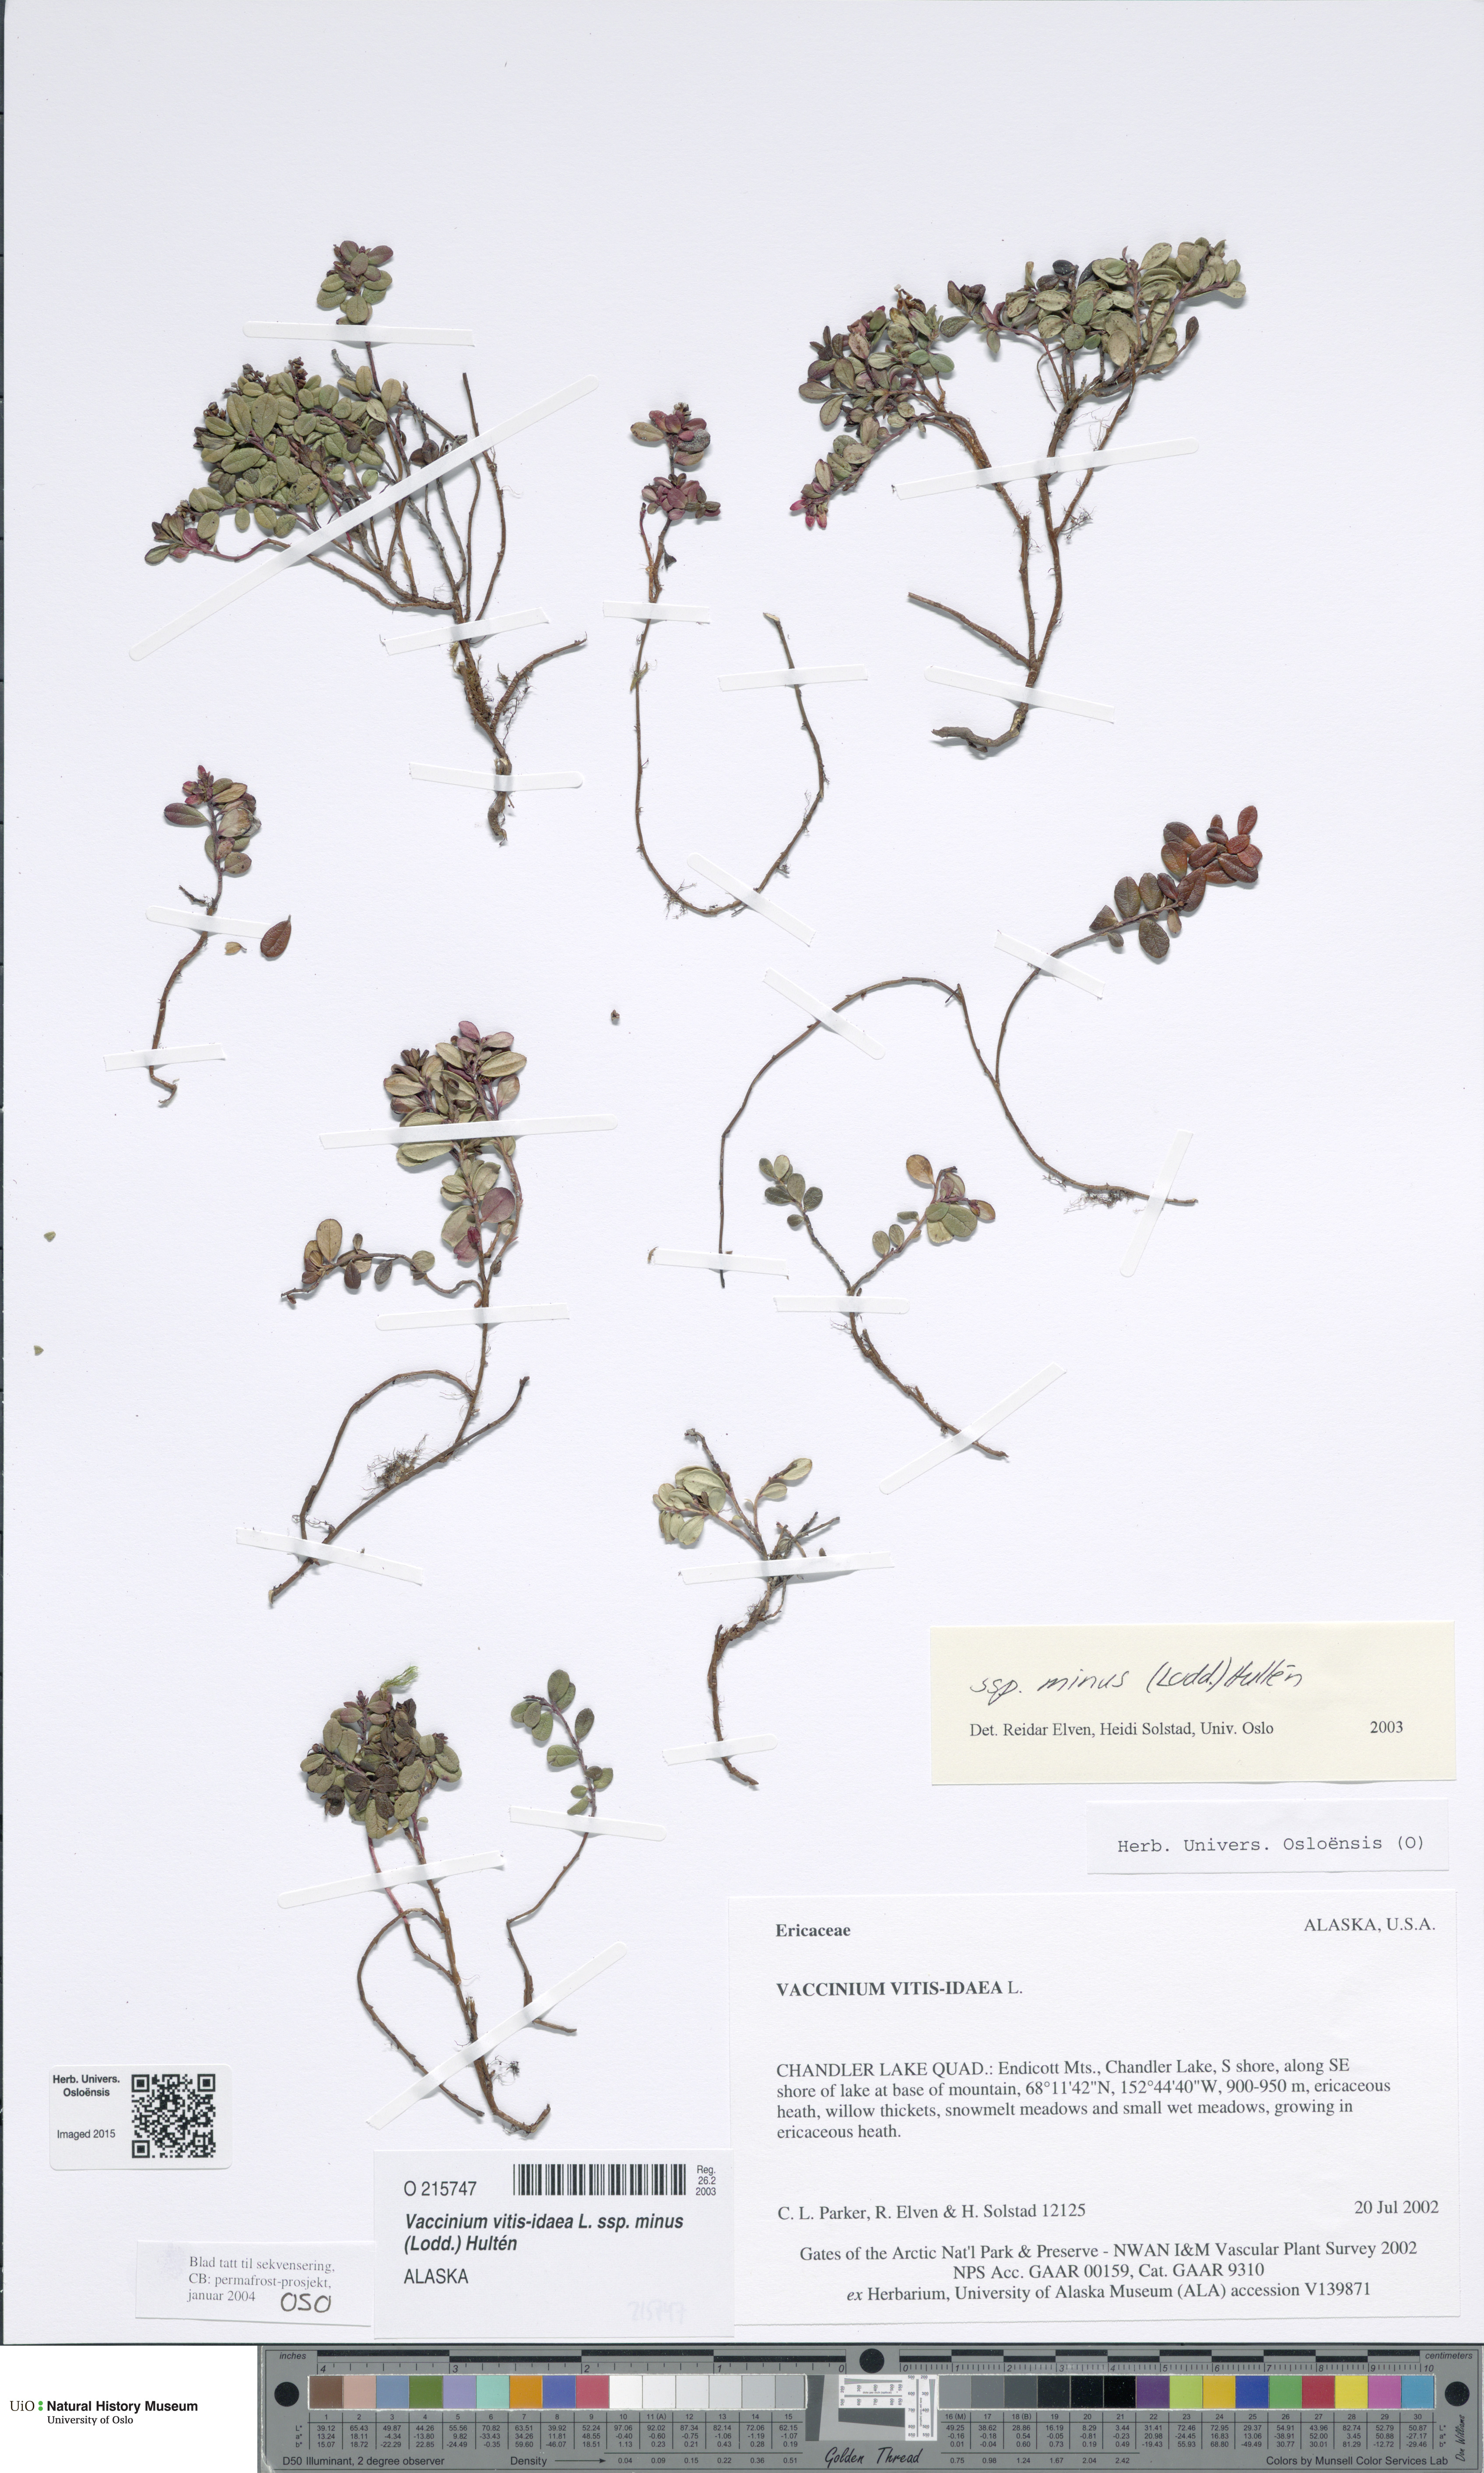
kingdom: Plantae
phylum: Tracheophyta
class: Magnoliopsida
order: Ericales
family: Ericaceae
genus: Vaccinium
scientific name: Vaccinium vitis-idaea
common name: Cowberry
